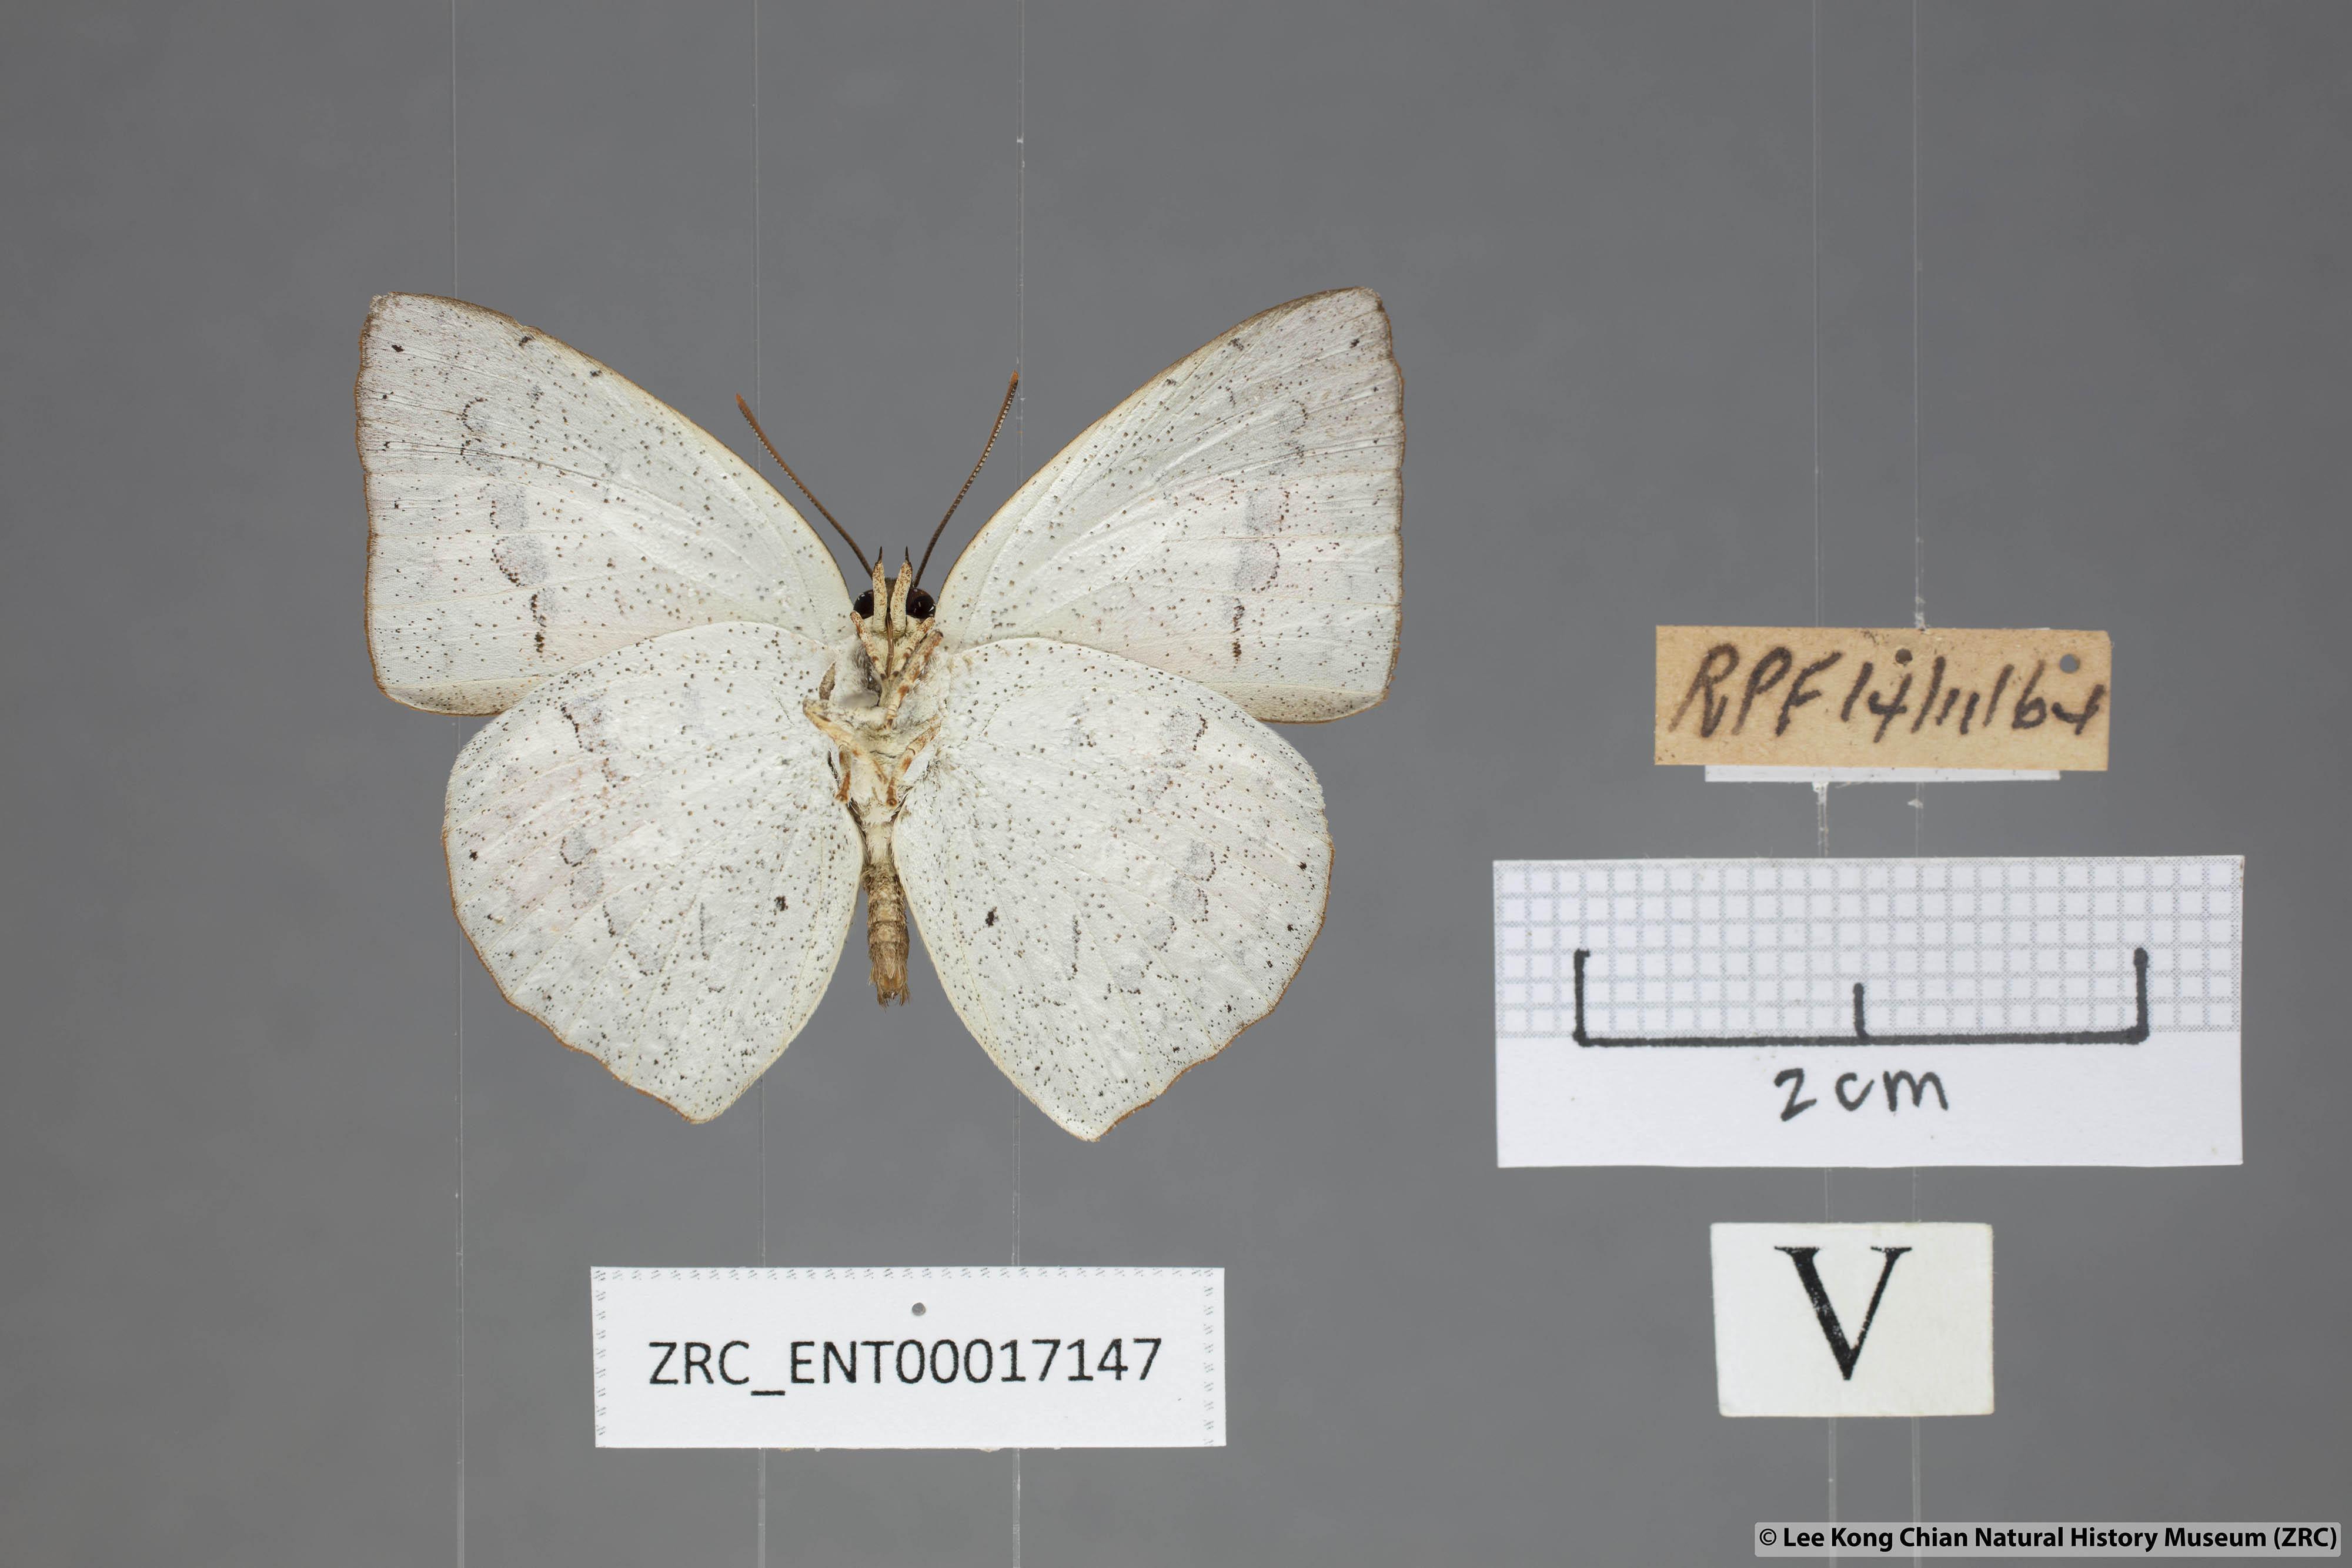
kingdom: Animalia
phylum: Arthropoda
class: Insecta
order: Lepidoptera
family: Lycaenidae
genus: Curetis
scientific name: Curetis santana
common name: Malayan sunbeam
